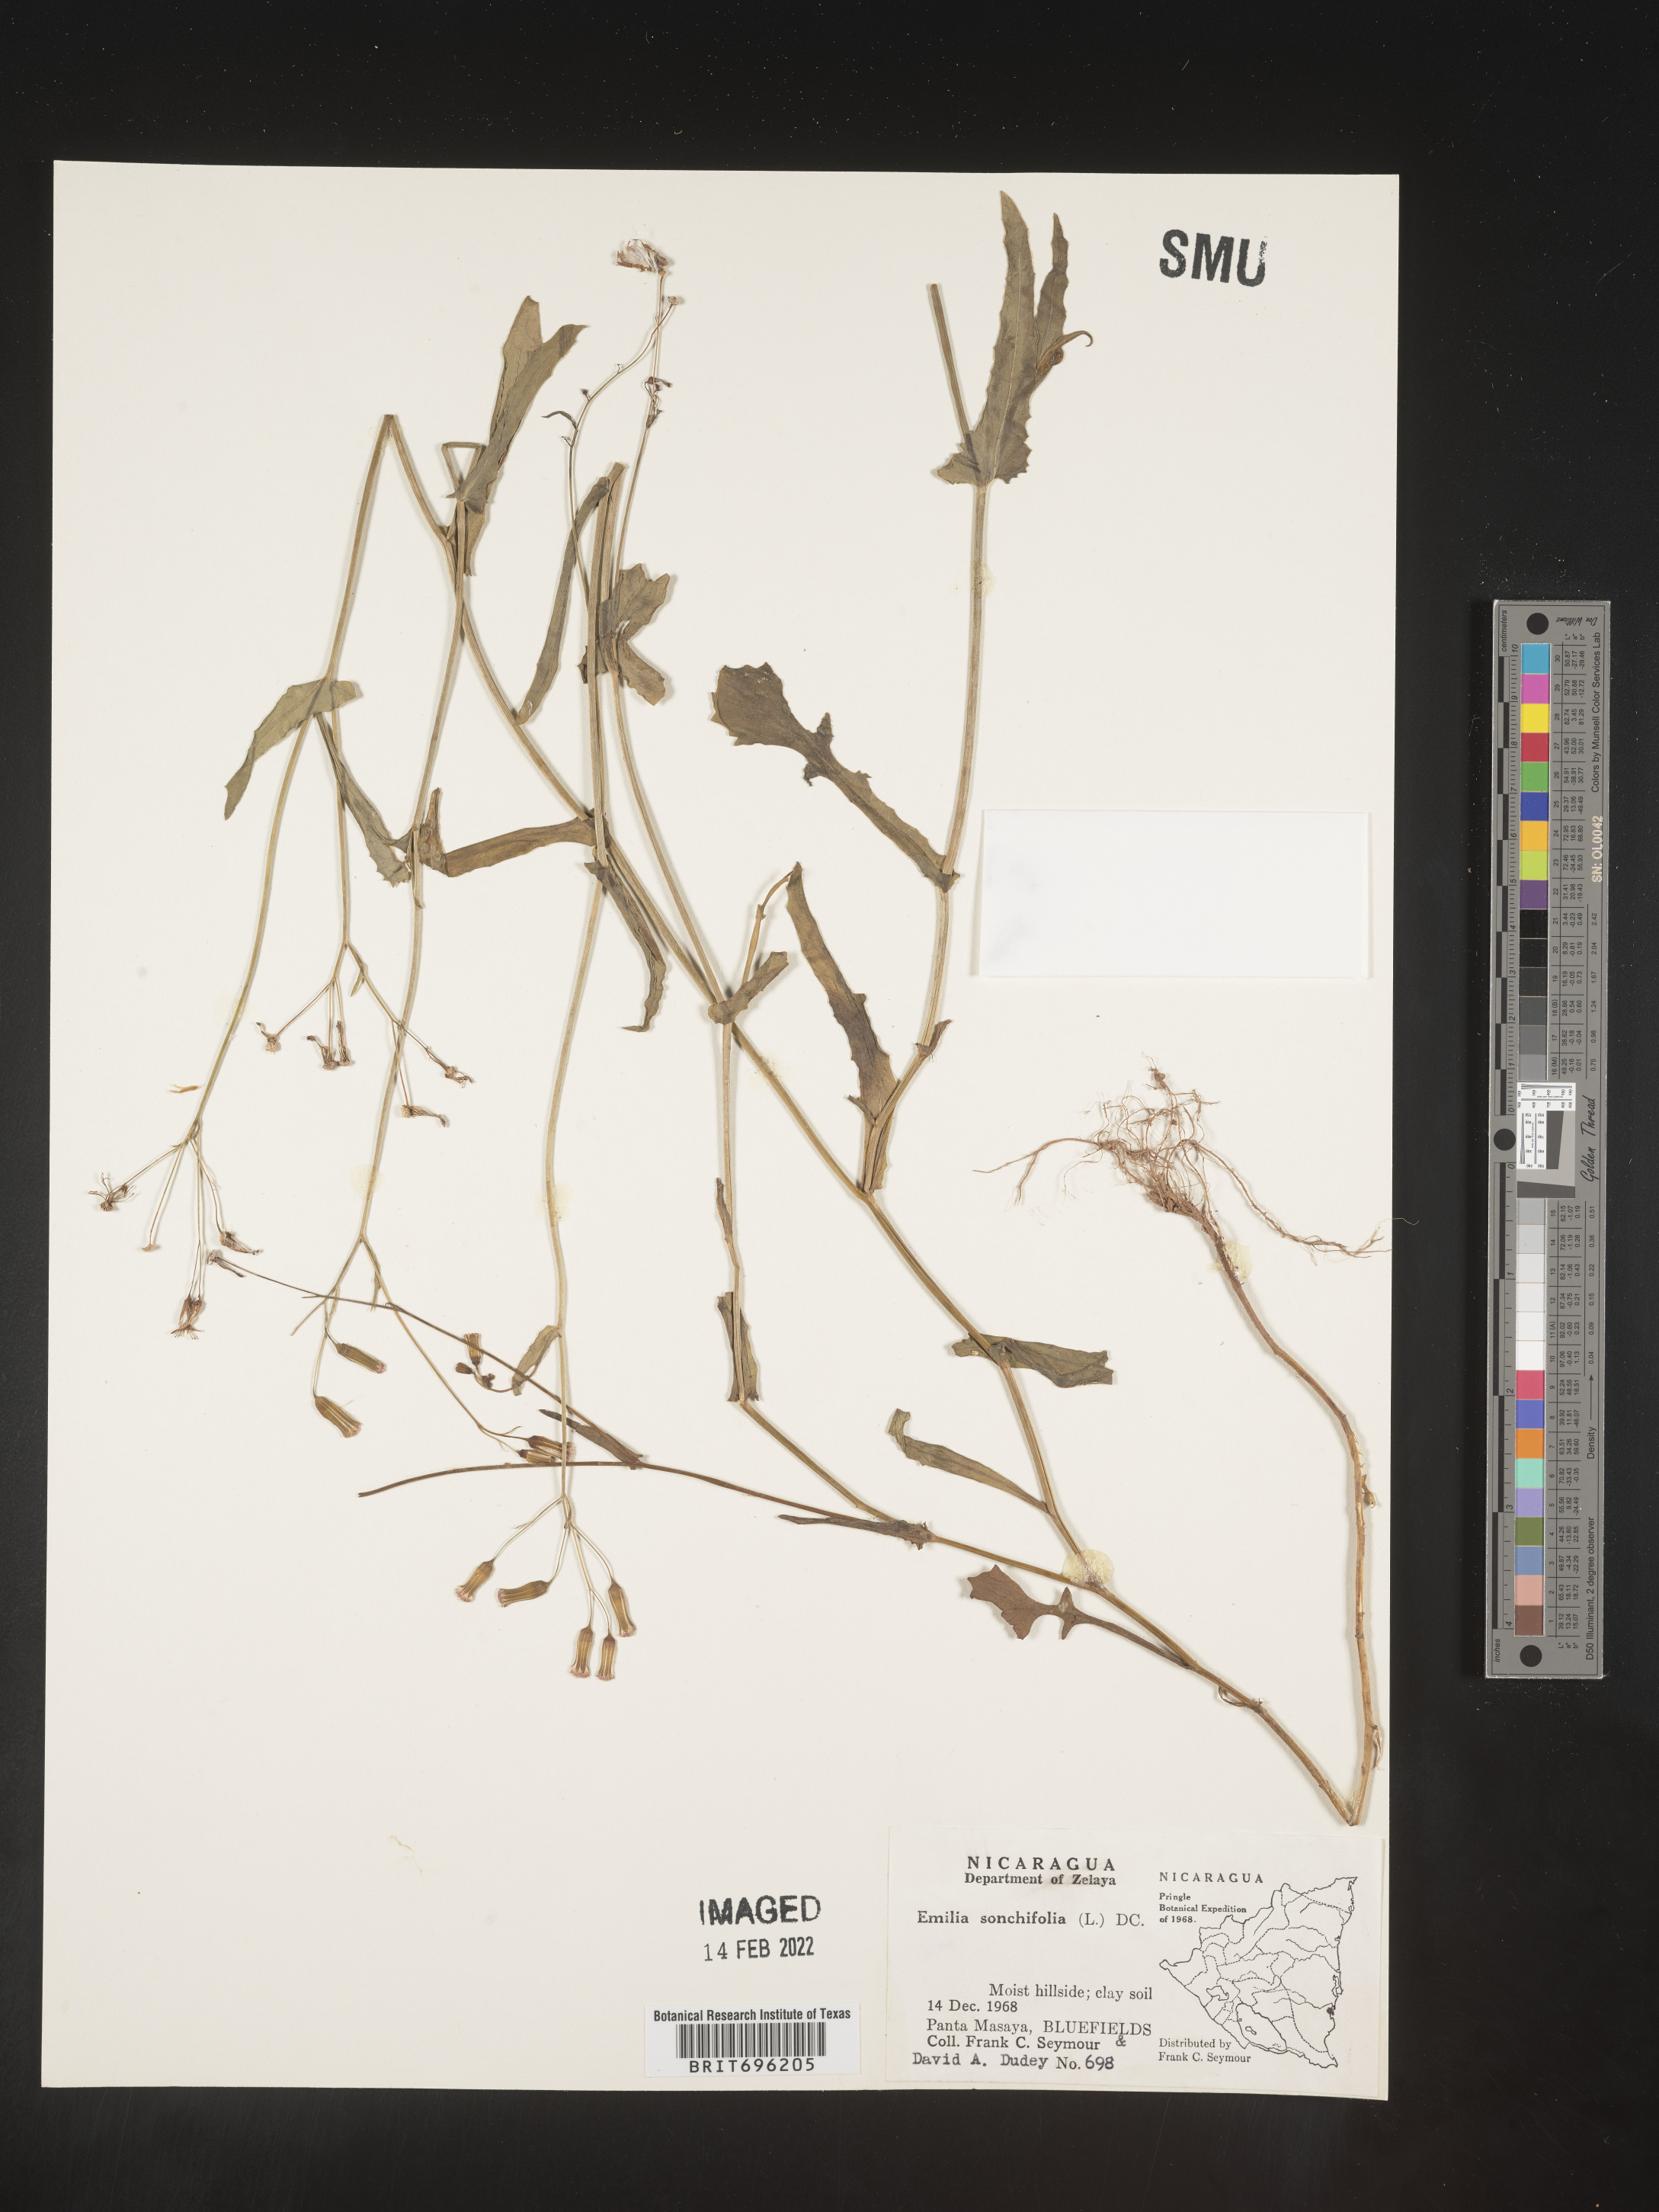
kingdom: Plantae
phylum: Tracheophyta
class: Magnoliopsida
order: Asterales
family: Asteraceae
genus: Emilia
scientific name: Emilia
